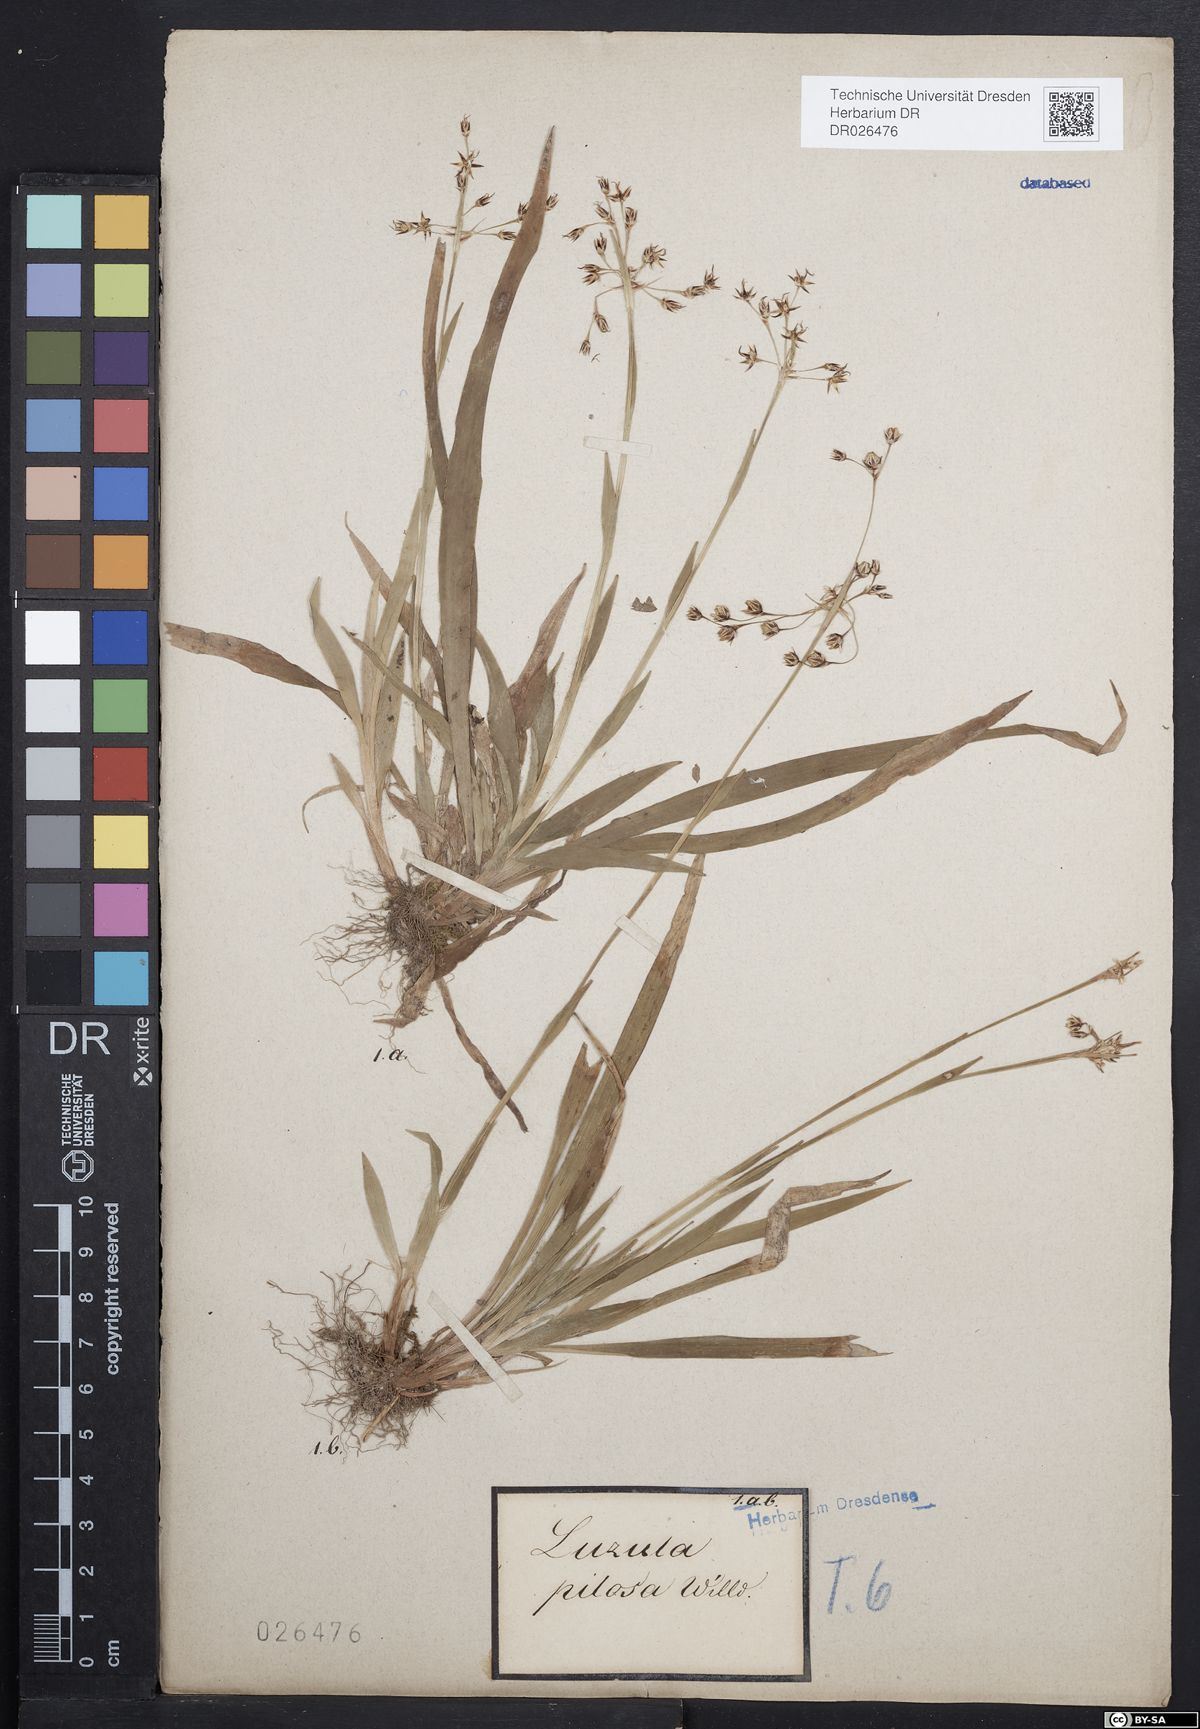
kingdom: Plantae
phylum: Tracheophyta
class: Liliopsida
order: Poales
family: Juncaceae
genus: Luzula
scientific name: Luzula pilosa
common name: Hairy wood-rush
